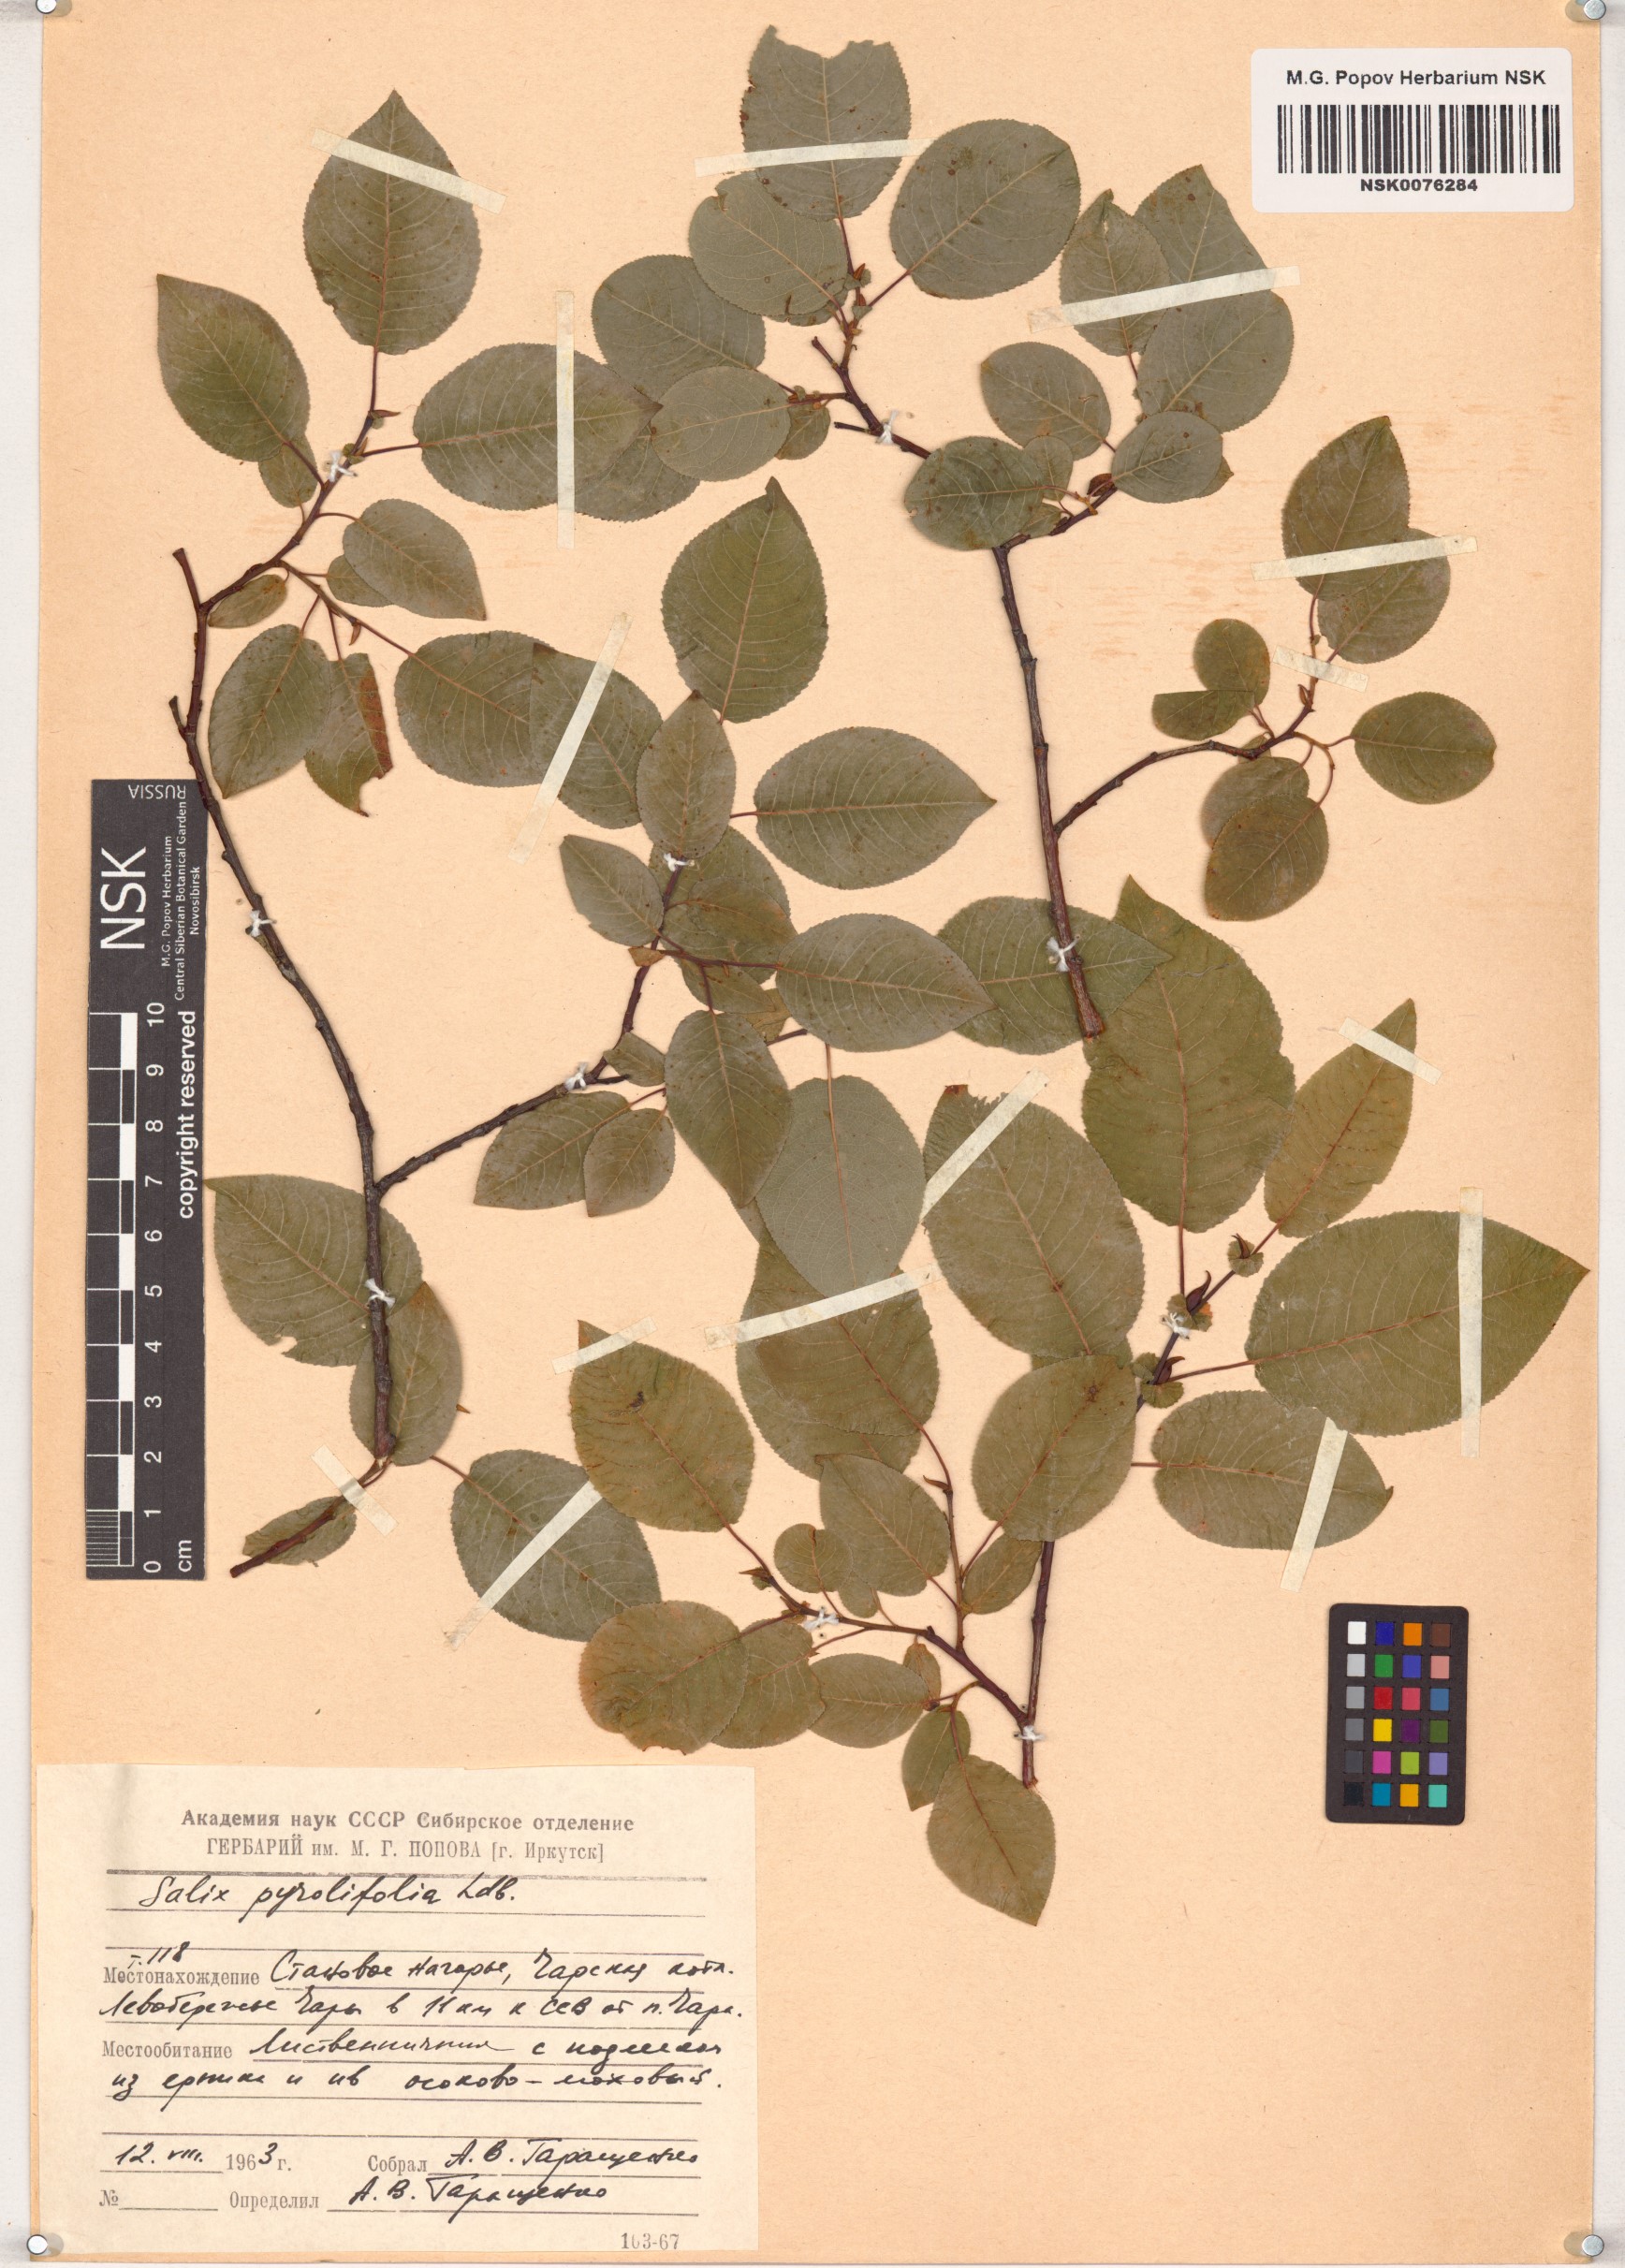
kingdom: Plantae
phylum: Tracheophyta
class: Magnoliopsida
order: Malpighiales
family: Salicaceae
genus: Salix
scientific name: Salix pyrolifolia
